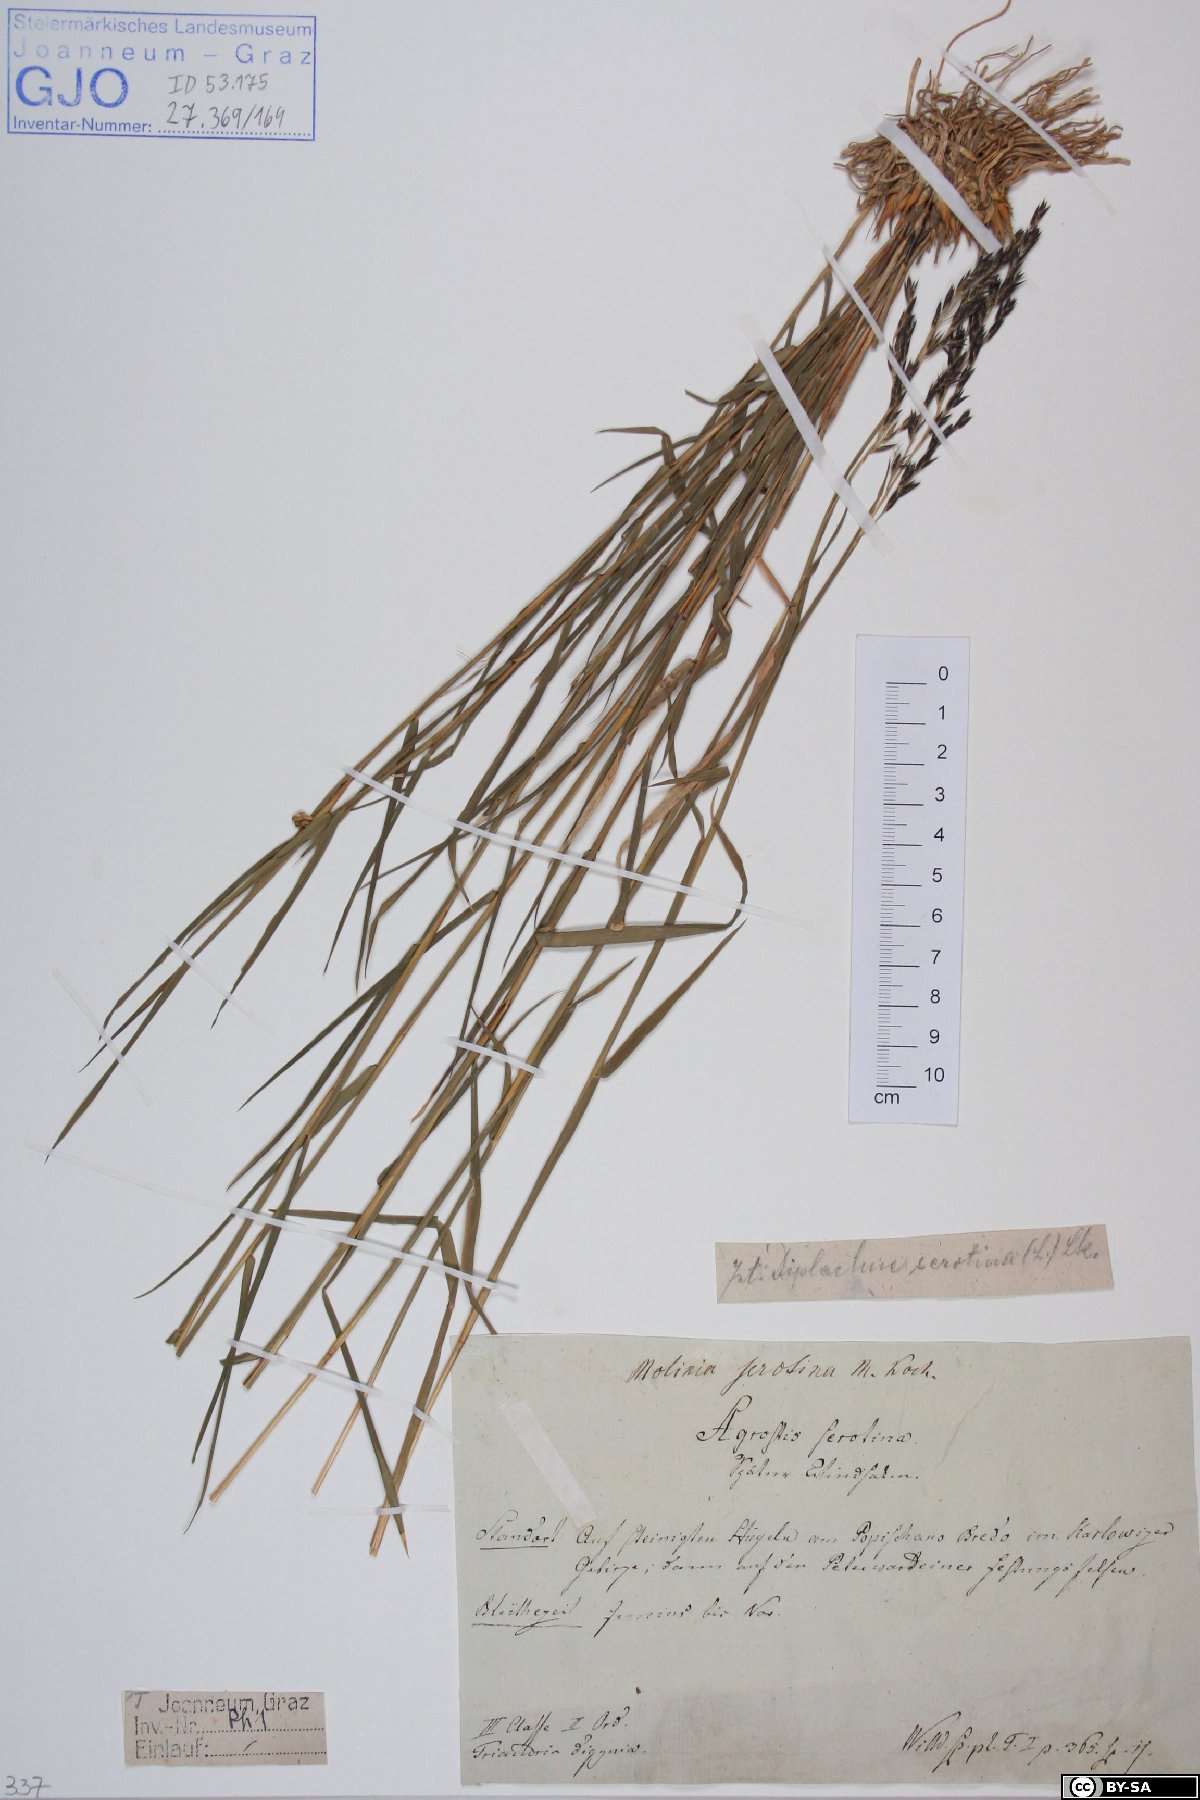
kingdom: Plantae
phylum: Tracheophyta
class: Liliopsida
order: Poales
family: Poaceae
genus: Cleistogenes
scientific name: Cleistogenes serotina
